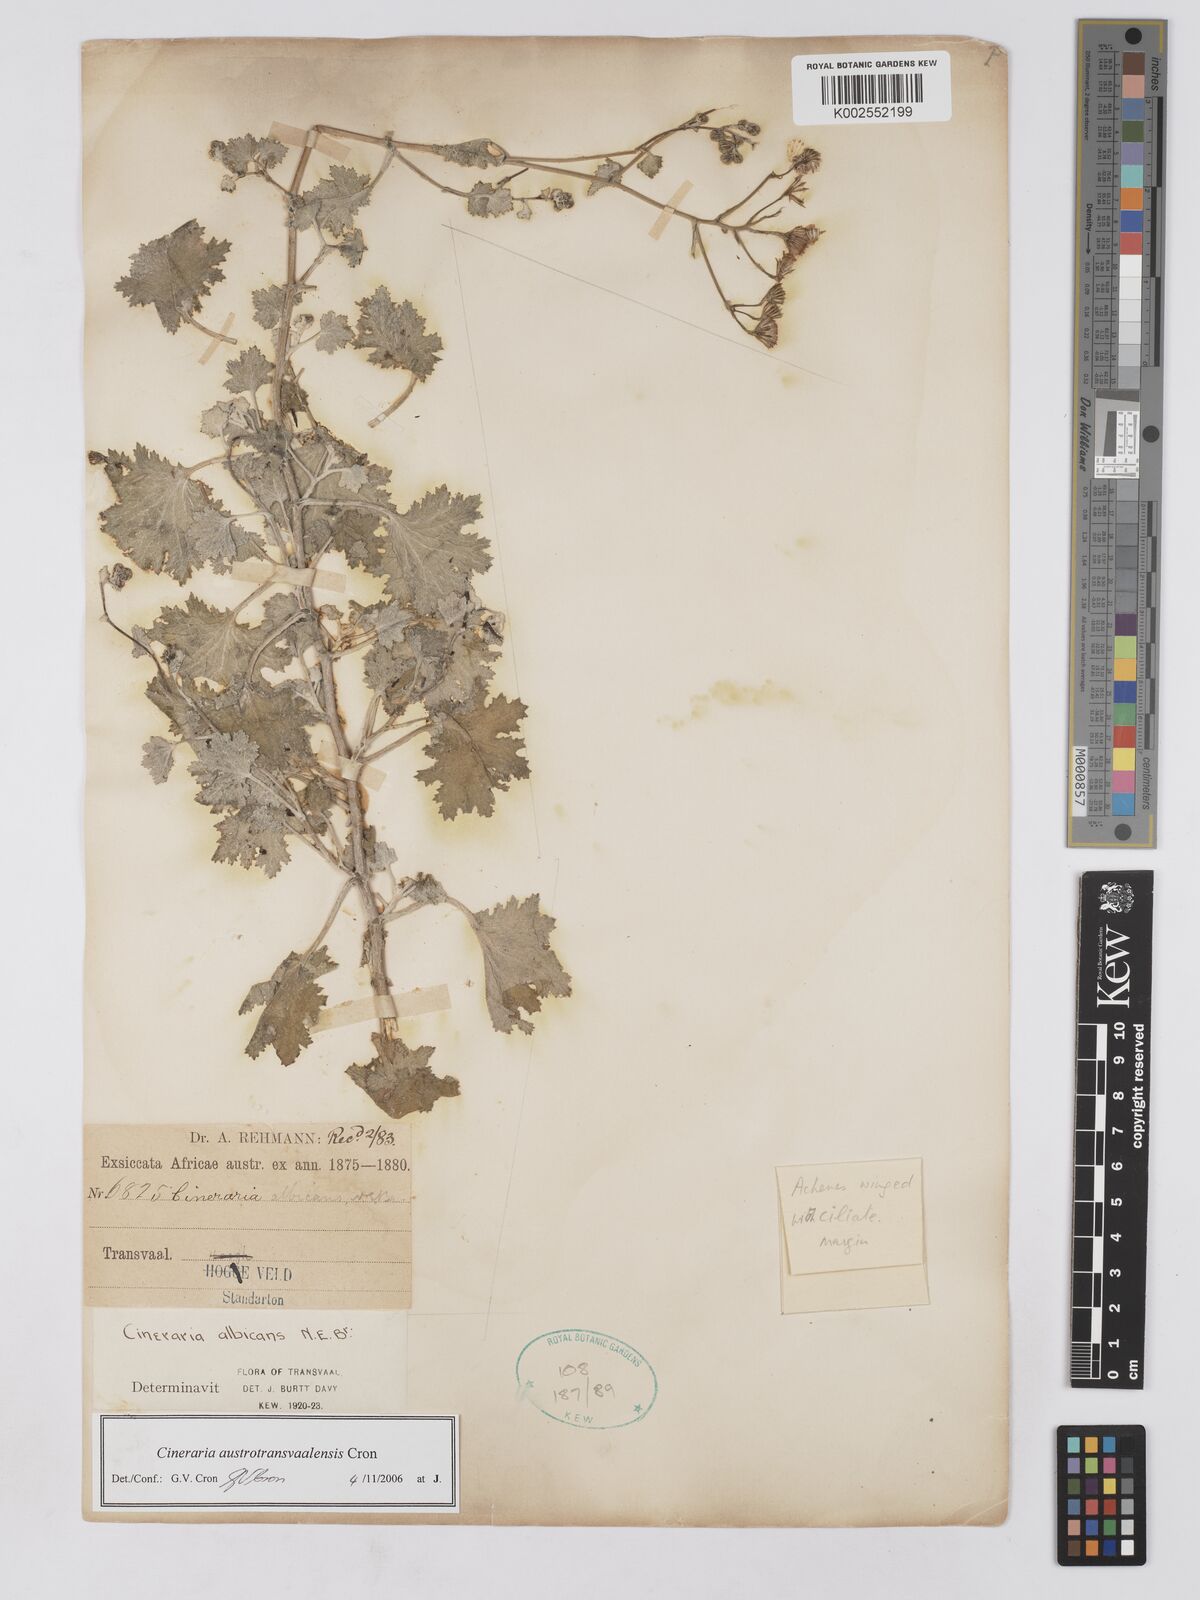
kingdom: Plantae
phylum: Tracheophyta
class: Magnoliopsida
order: Asterales
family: Asteraceae
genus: Cineraria
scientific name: Cineraria austrotransvaalensis
